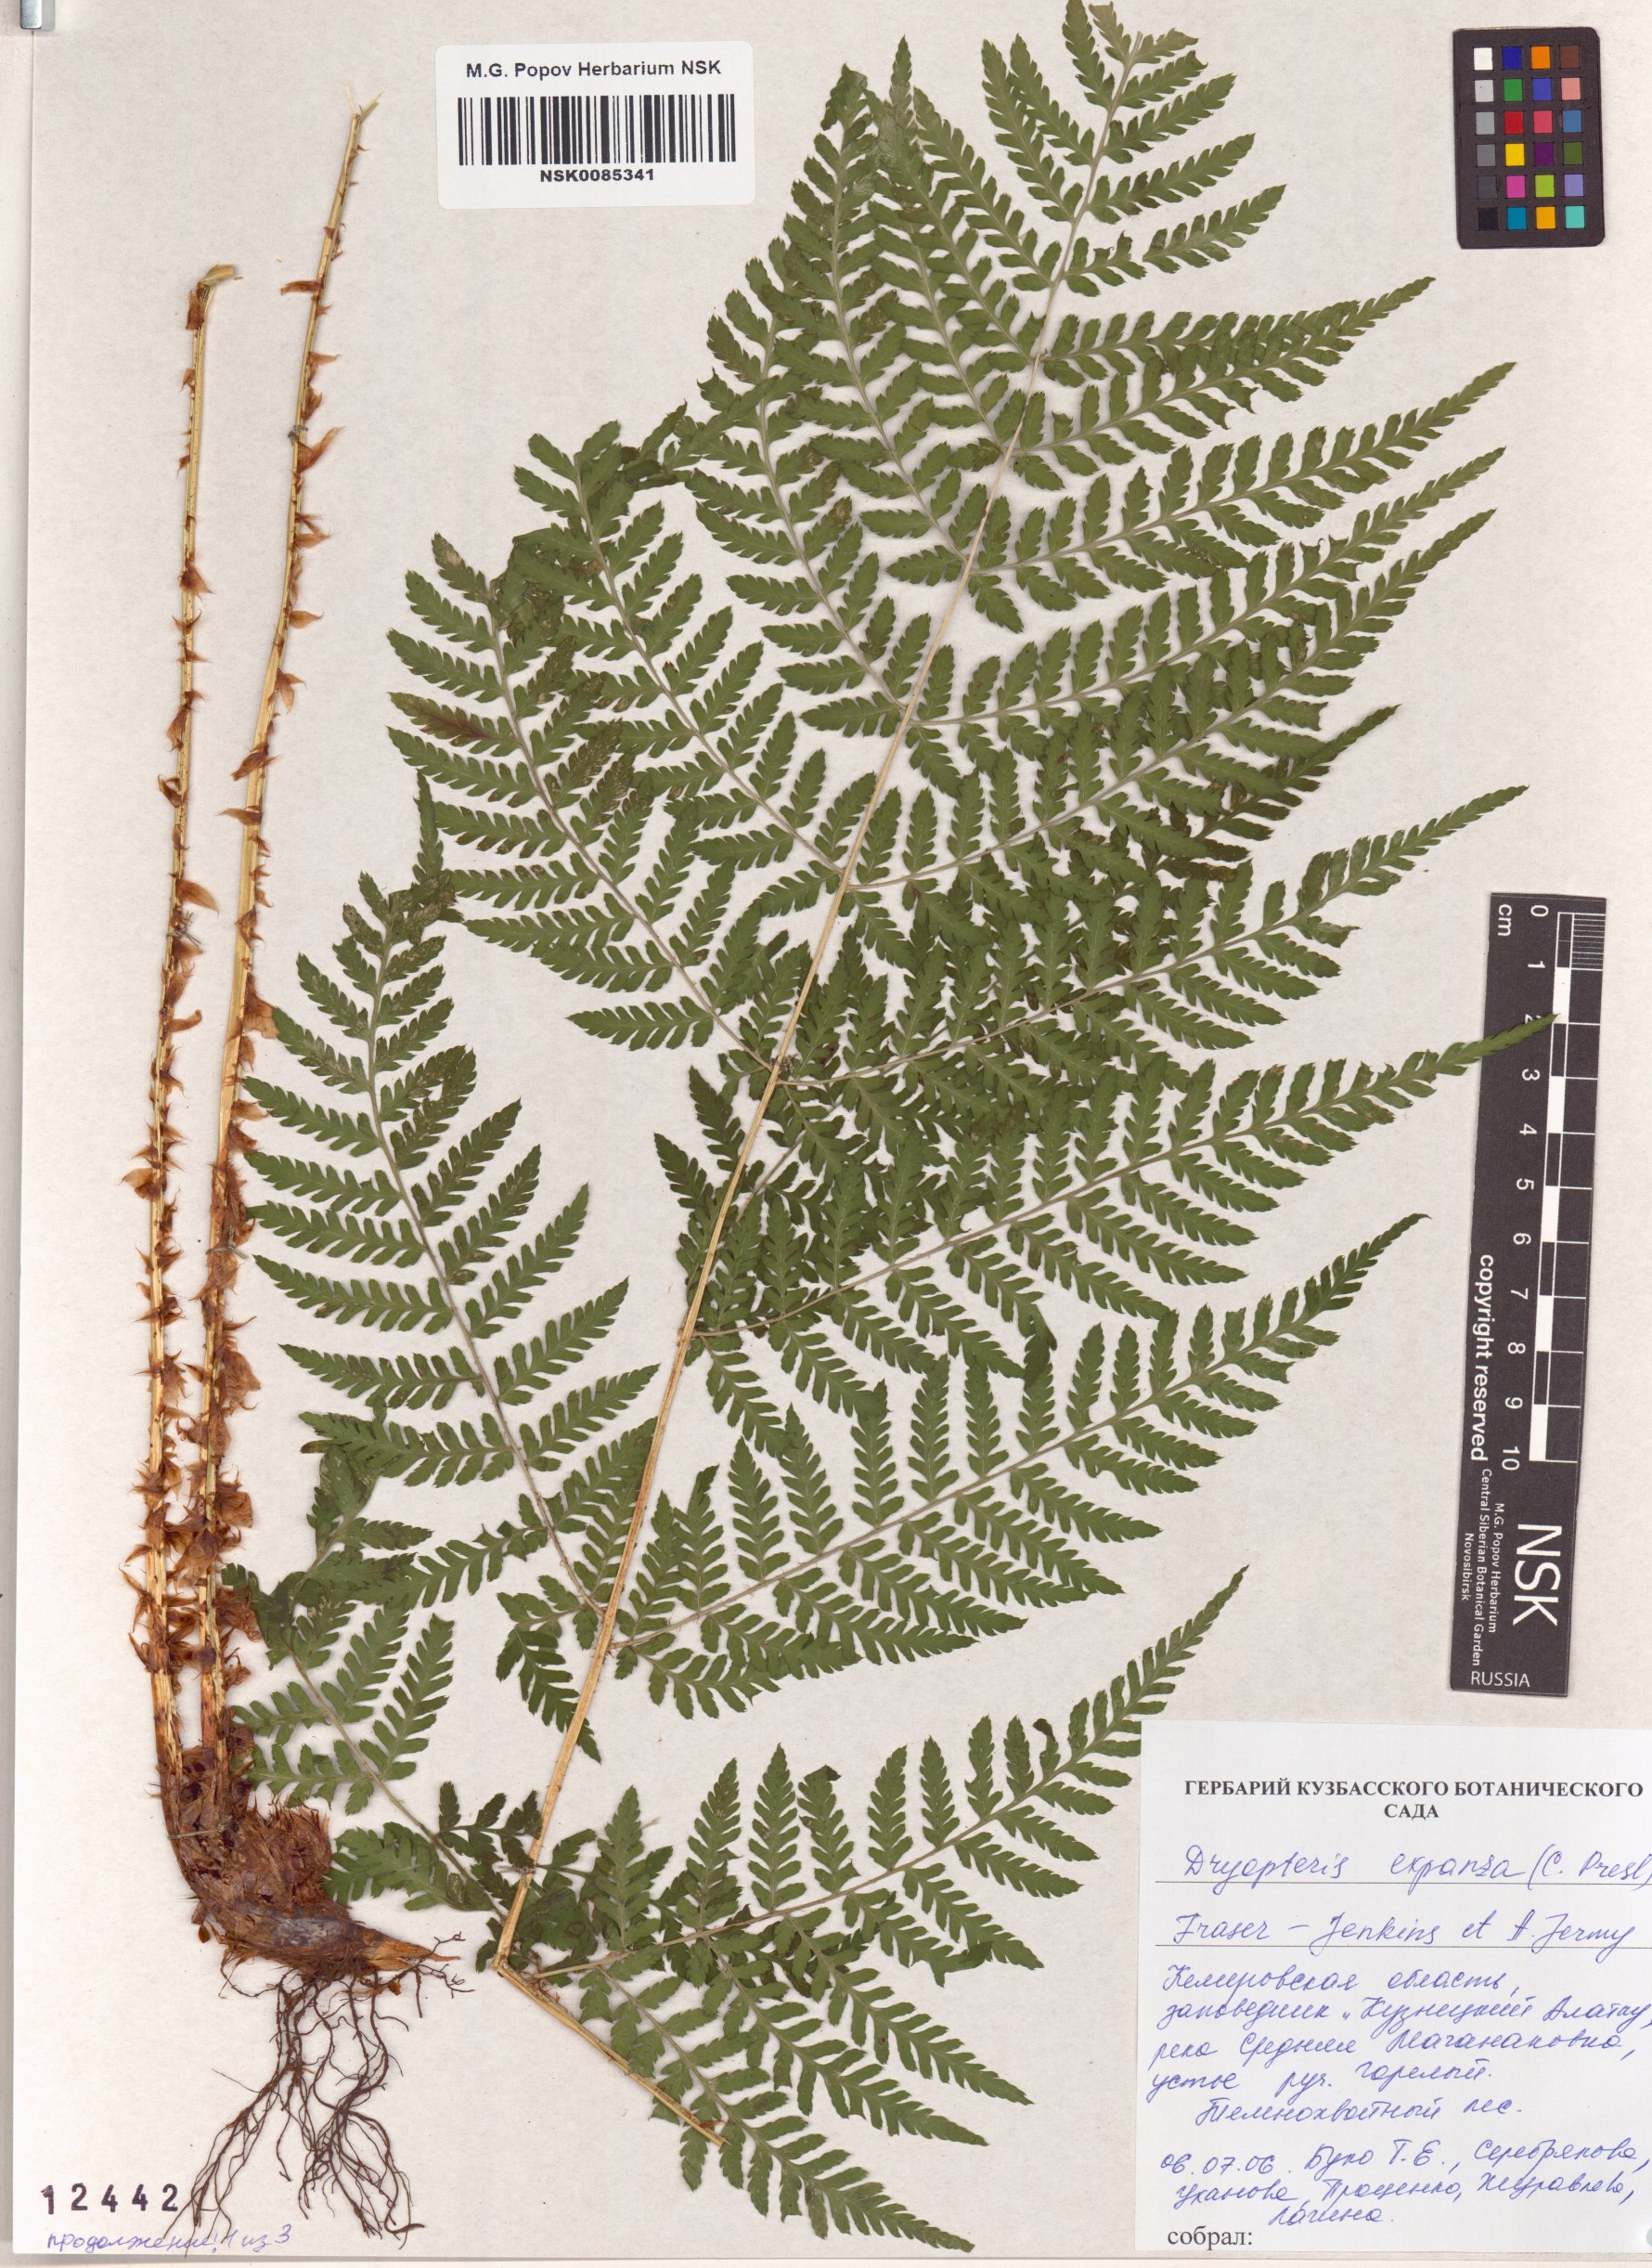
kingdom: Plantae
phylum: Tracheophyta
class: Polypodiopsida
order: Polypodiales
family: Dryopteridaceae
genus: Dryopteris
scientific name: Dryopteris expansa
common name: Northern buckler fern
